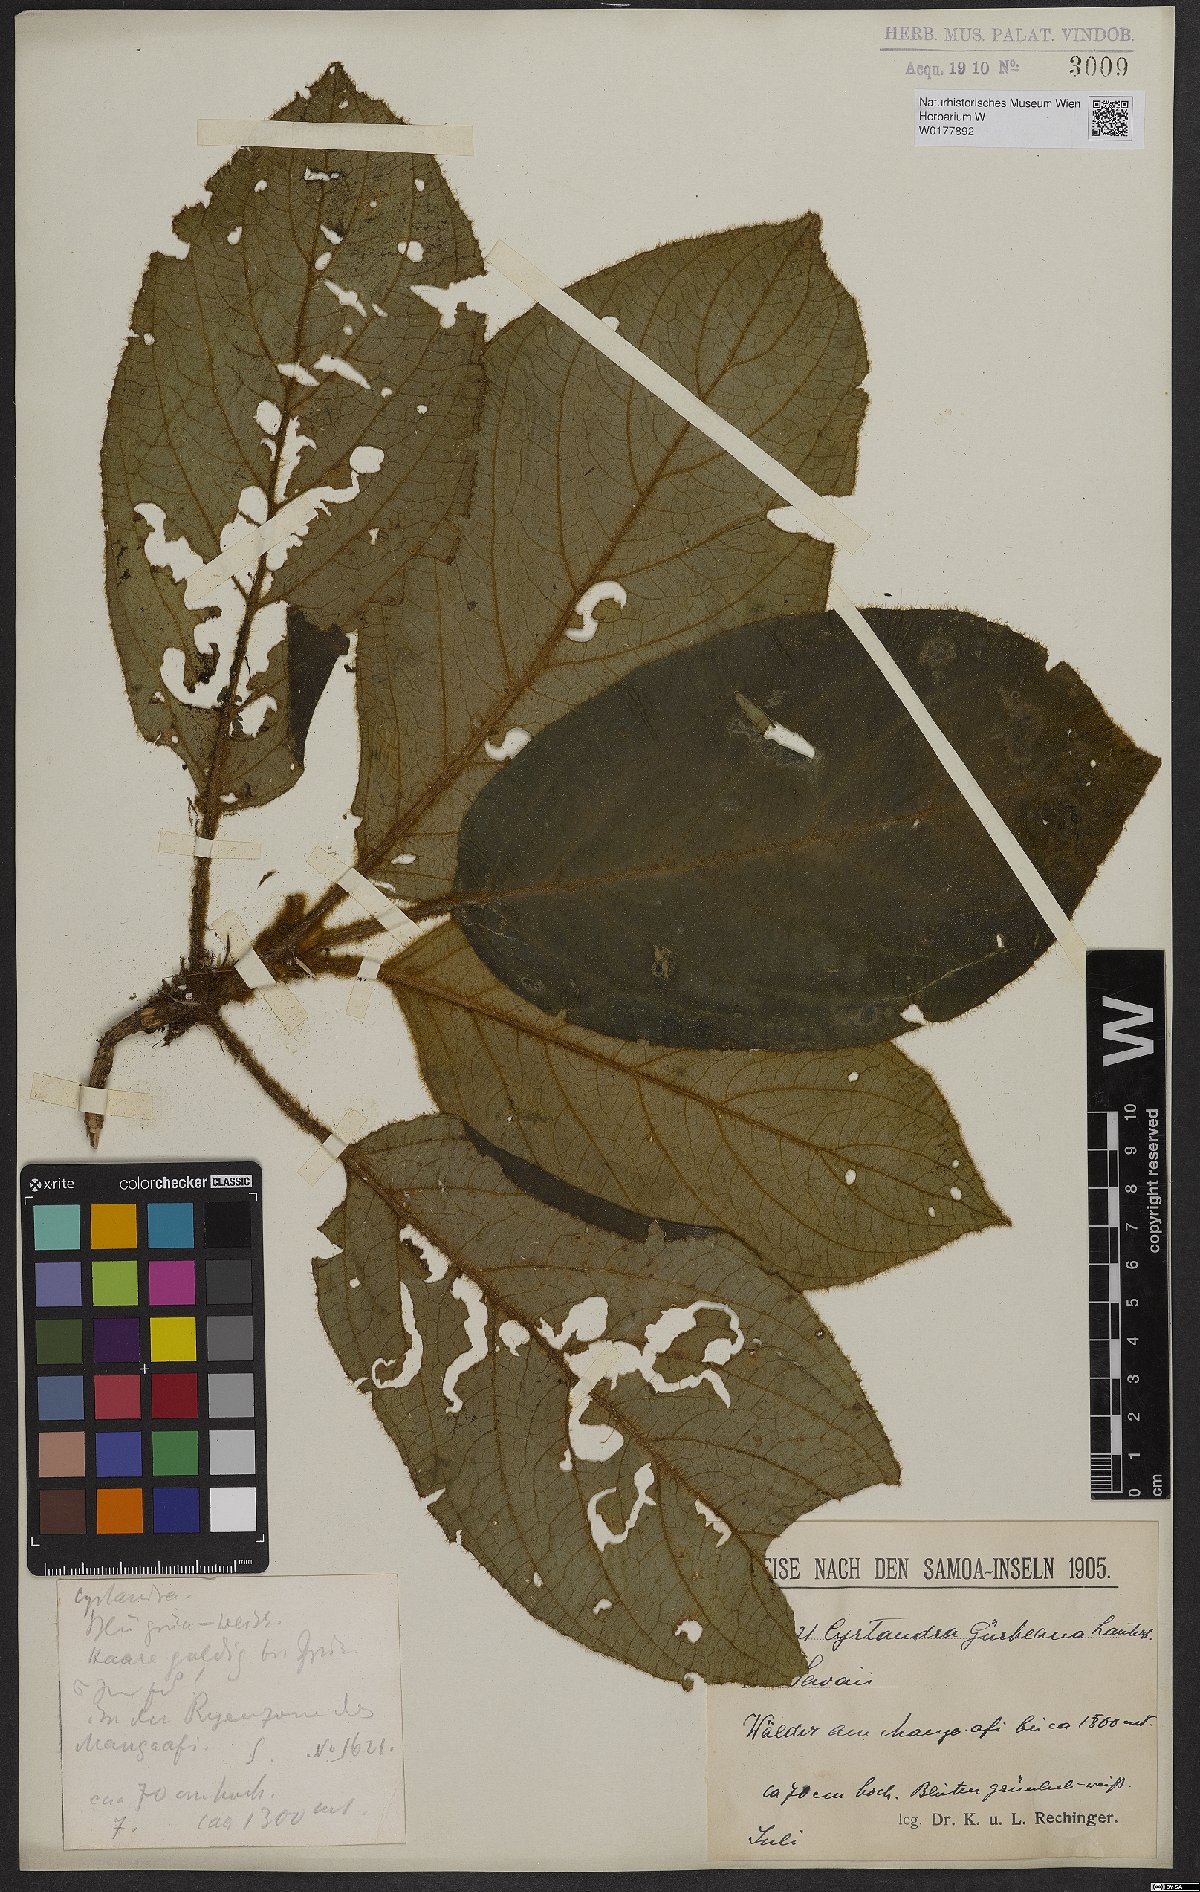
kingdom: Plantae
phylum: Tracheophyta
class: Magnoliopsida
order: Lamiales
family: Gesneriaceae
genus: Cyrtandra
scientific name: Cyrtandra guerkeana
